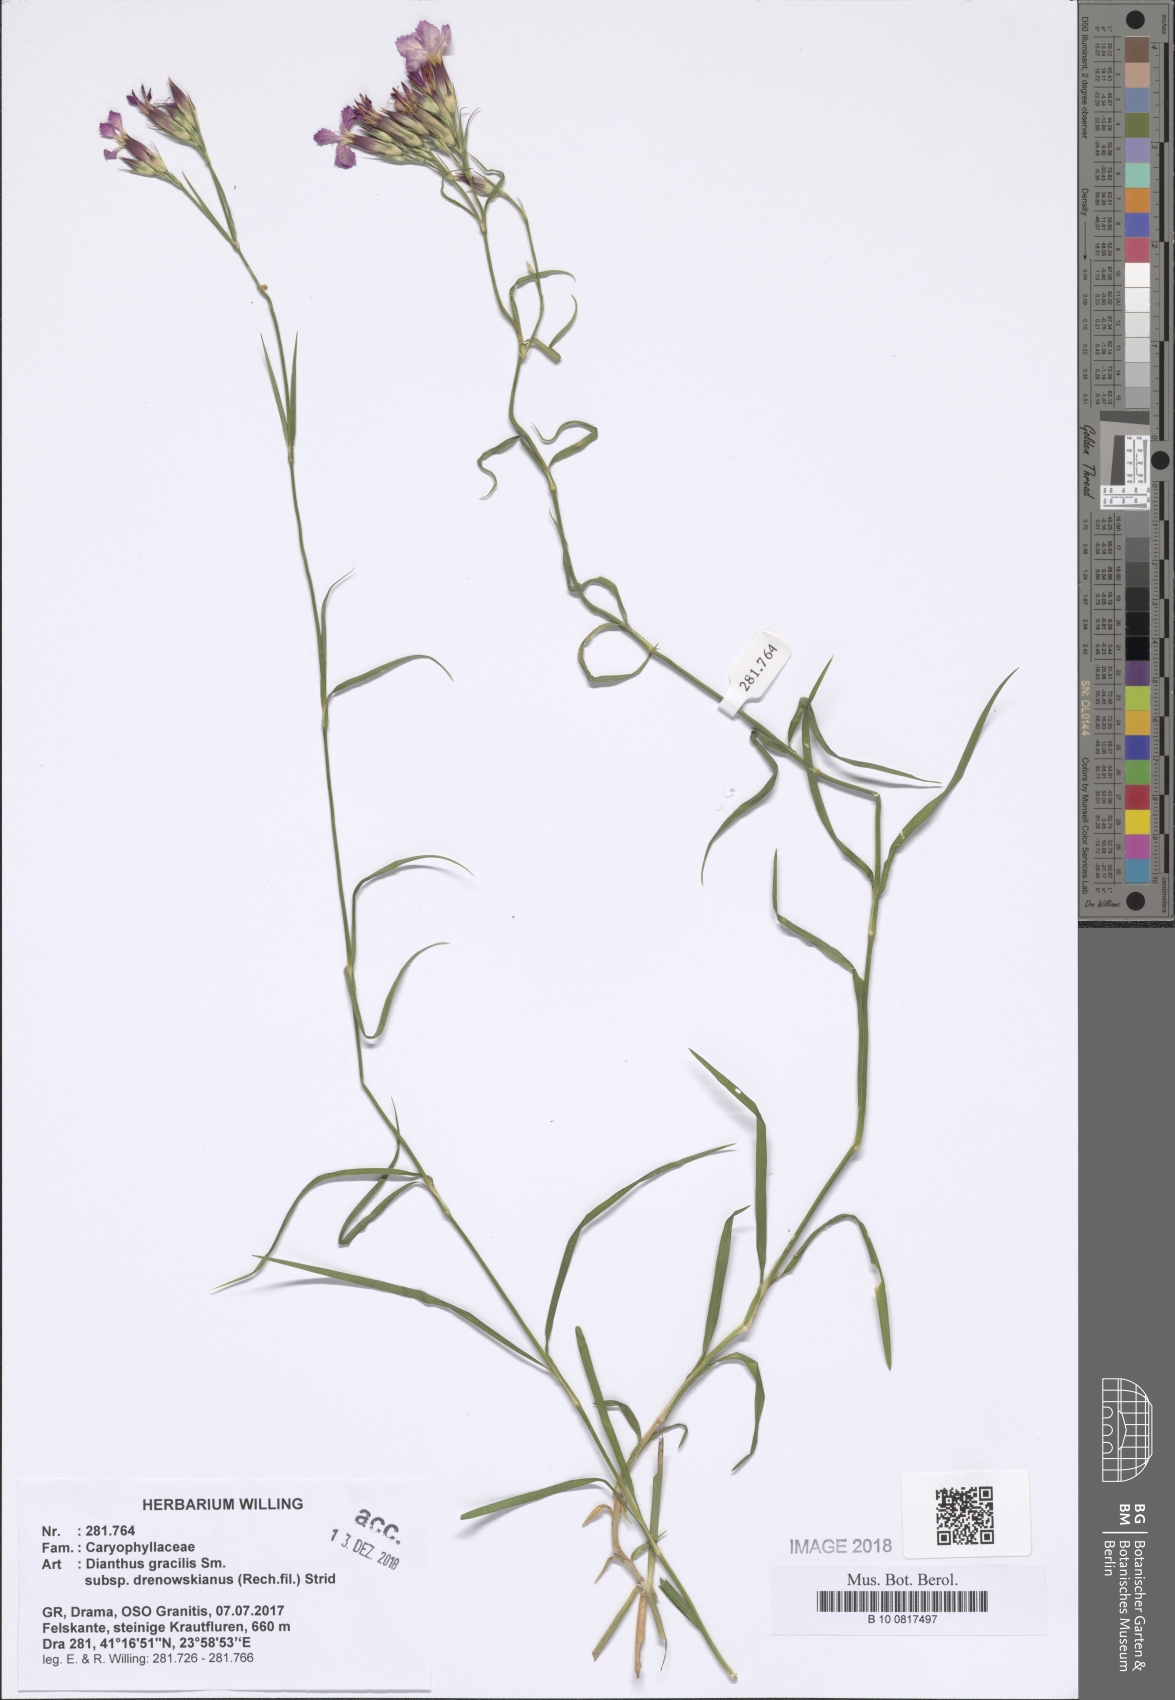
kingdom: Plantae
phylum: Tracheophyta
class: Magnoliopsida
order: Caryophyllales
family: Caryophyllaceae
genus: Dianthus
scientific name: Dianthus gracilis
